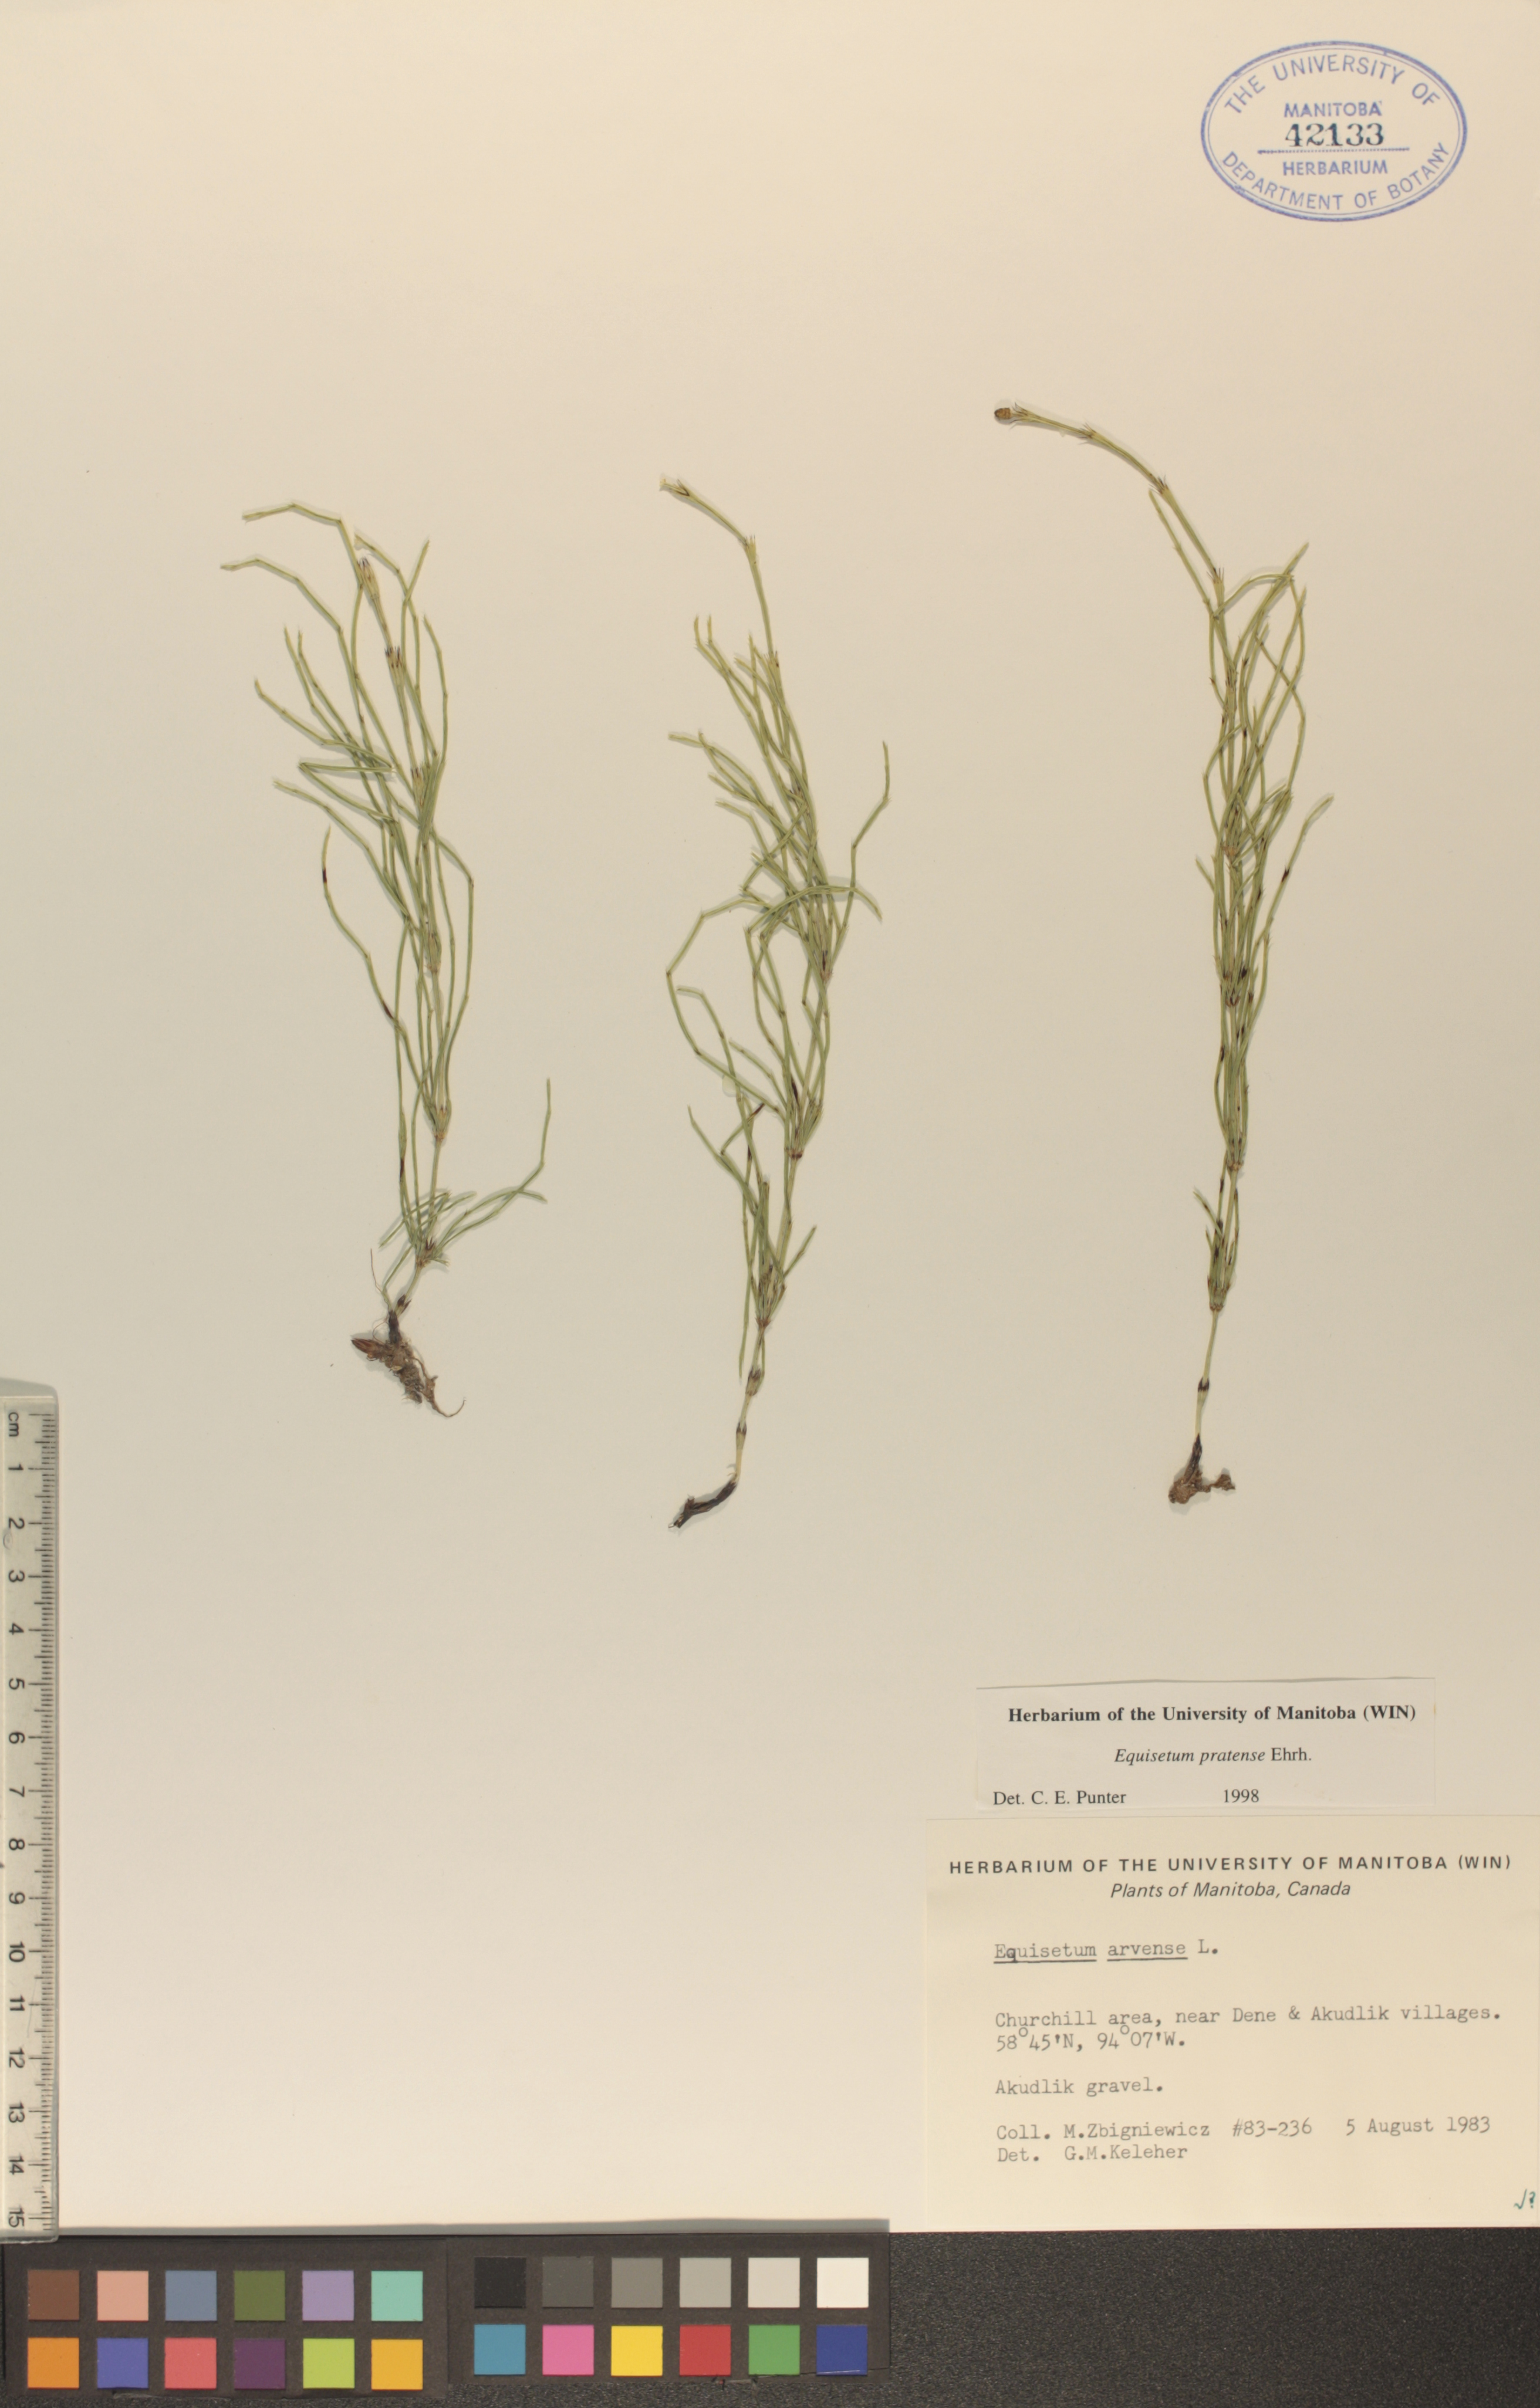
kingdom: Plantae
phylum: Tracheophyta
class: Polypodiopsida
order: Equisetales
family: Equisetaceae
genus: Equisetum
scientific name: Equisetum pratense
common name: Meadow horsetail
